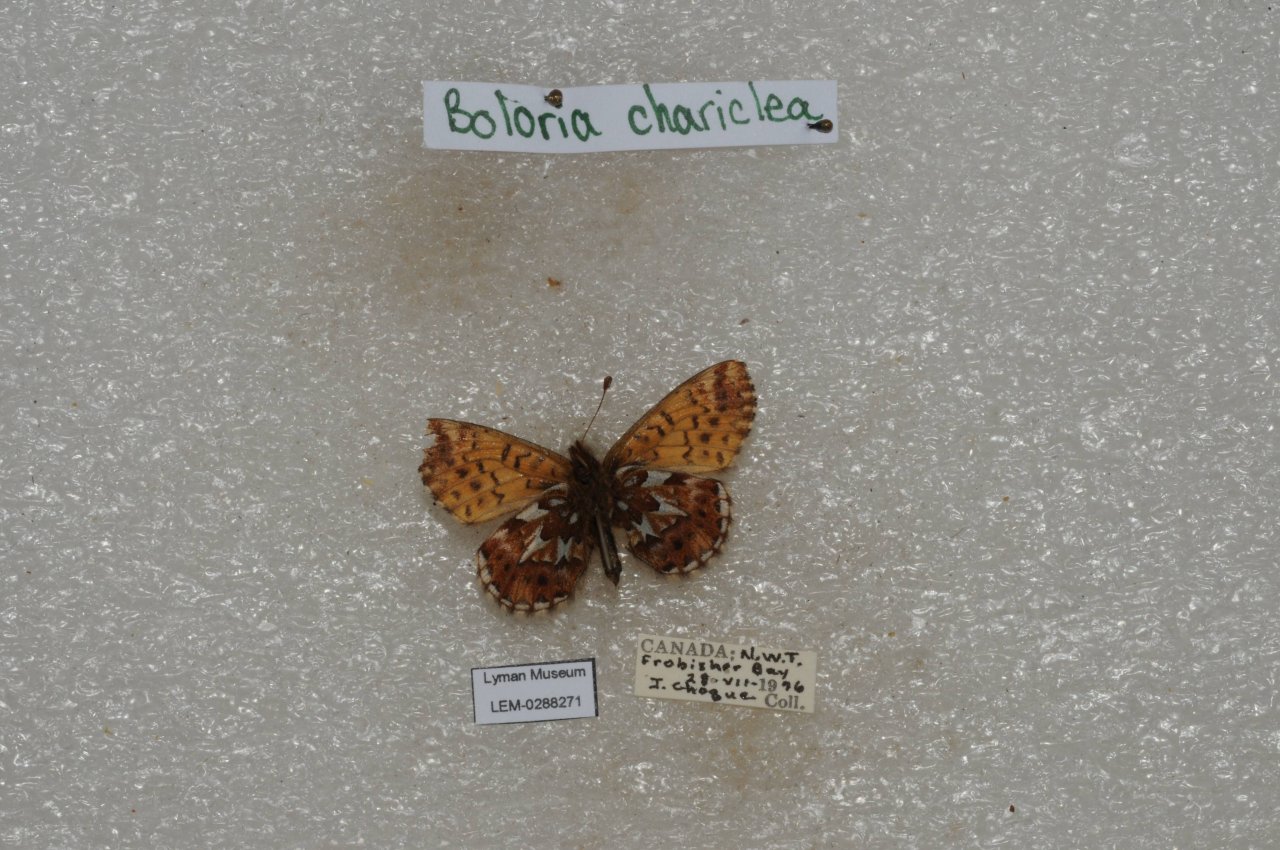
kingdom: Animalia
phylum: Arthropoda
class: Insecta
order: Lepidoptera
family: Nymphalidae
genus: Boloria
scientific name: Boloria chariclea
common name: Arctic Fritillary
